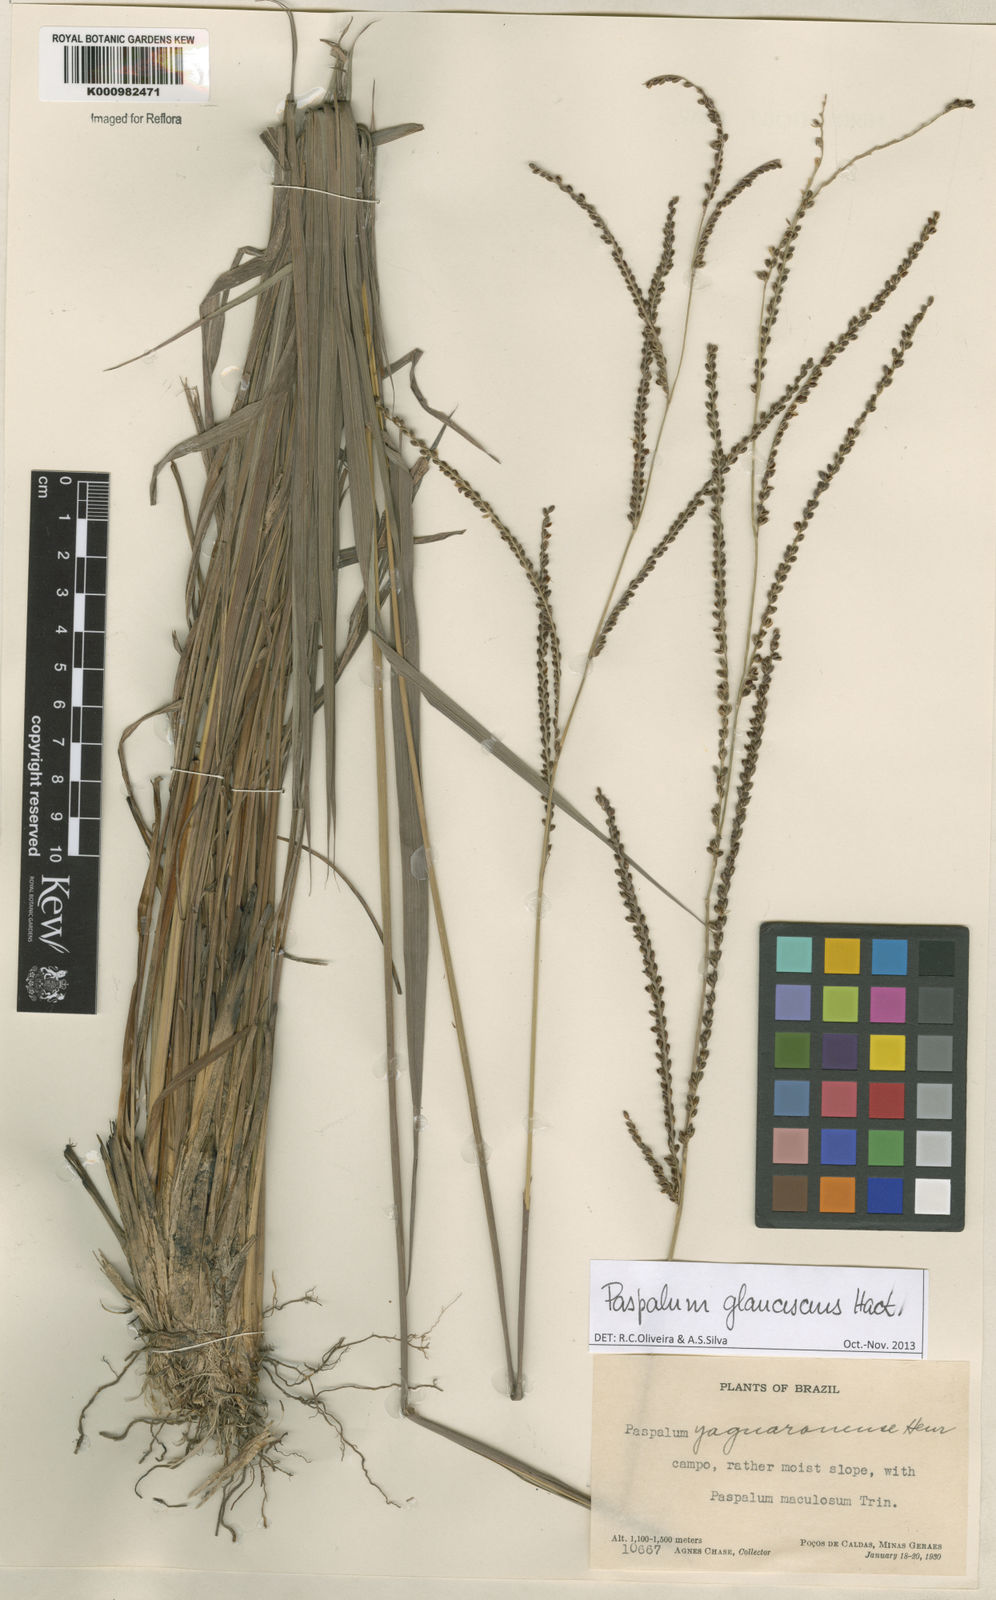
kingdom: Plantae
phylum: Tracheophyta
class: Liliopsida
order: Poales
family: Poaceae
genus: Paspalum
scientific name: Paspalum glaucescens
